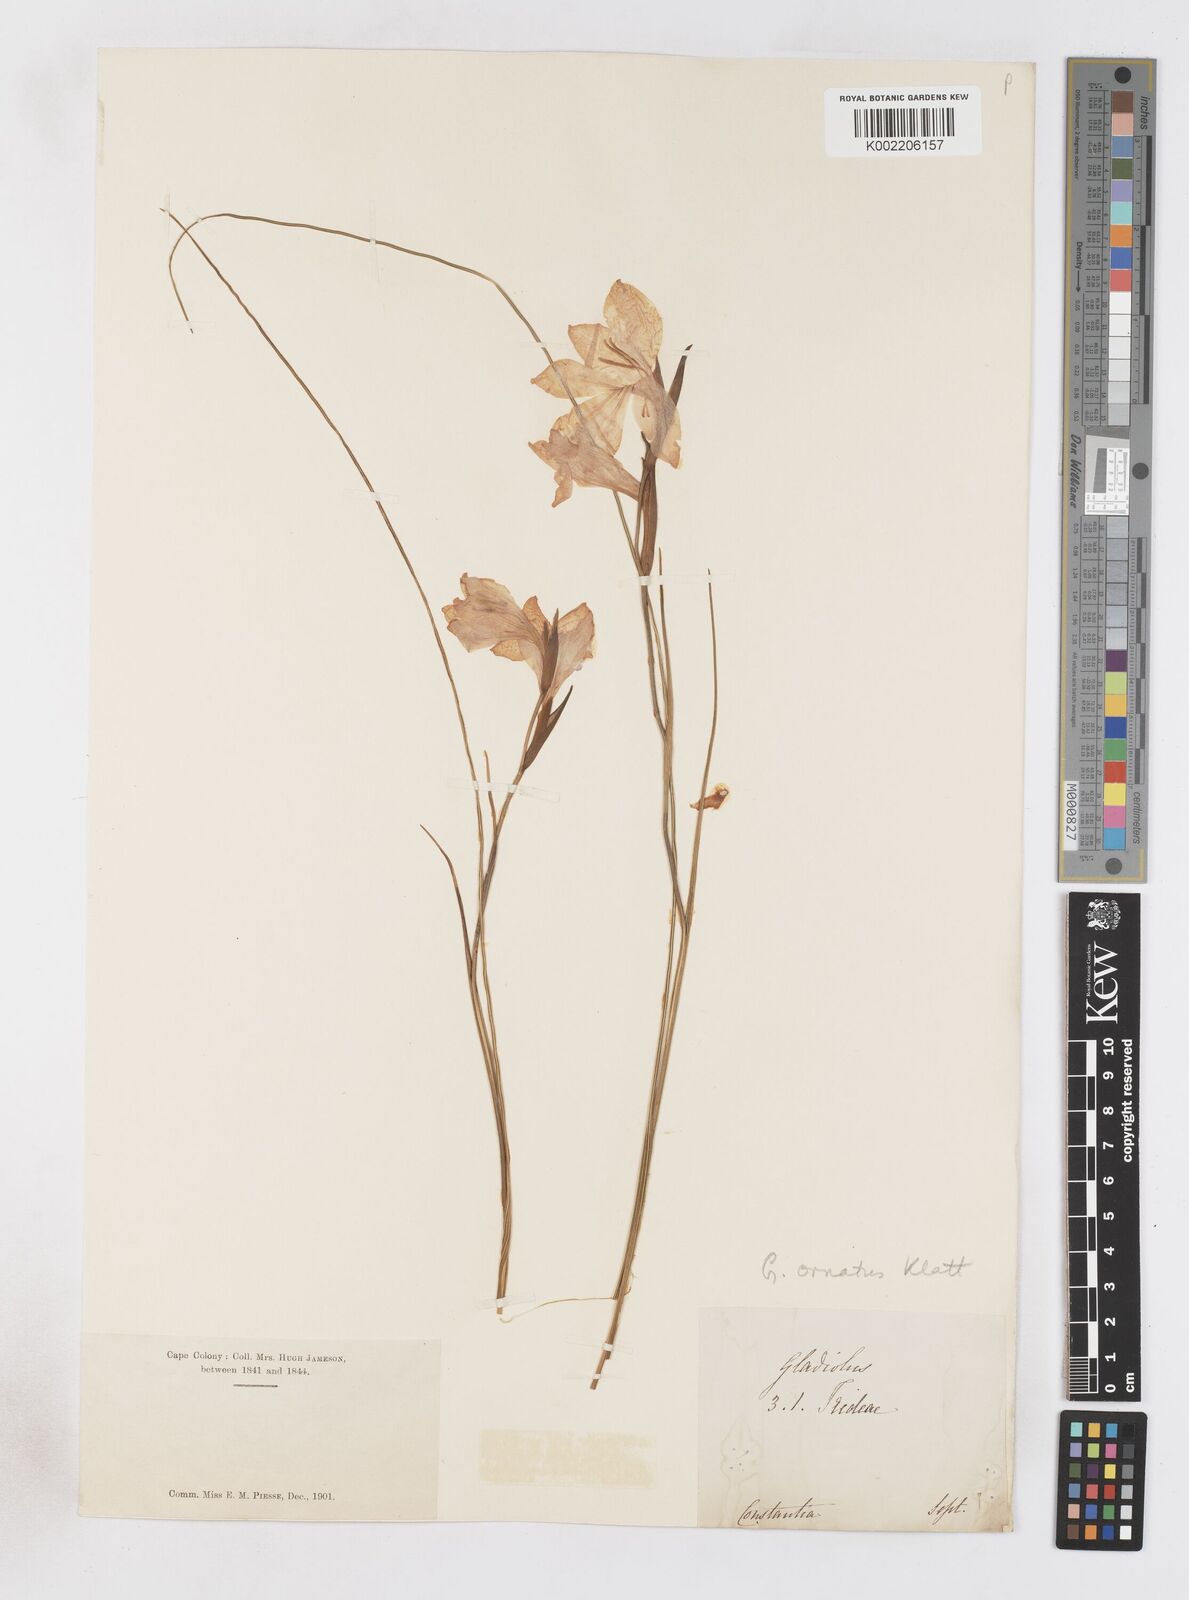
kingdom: Plantae
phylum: Tracheophyta
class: Liliopsida
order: Asparagales
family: Iridaceae
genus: Gladiolus
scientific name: Gladiolus ornatus
